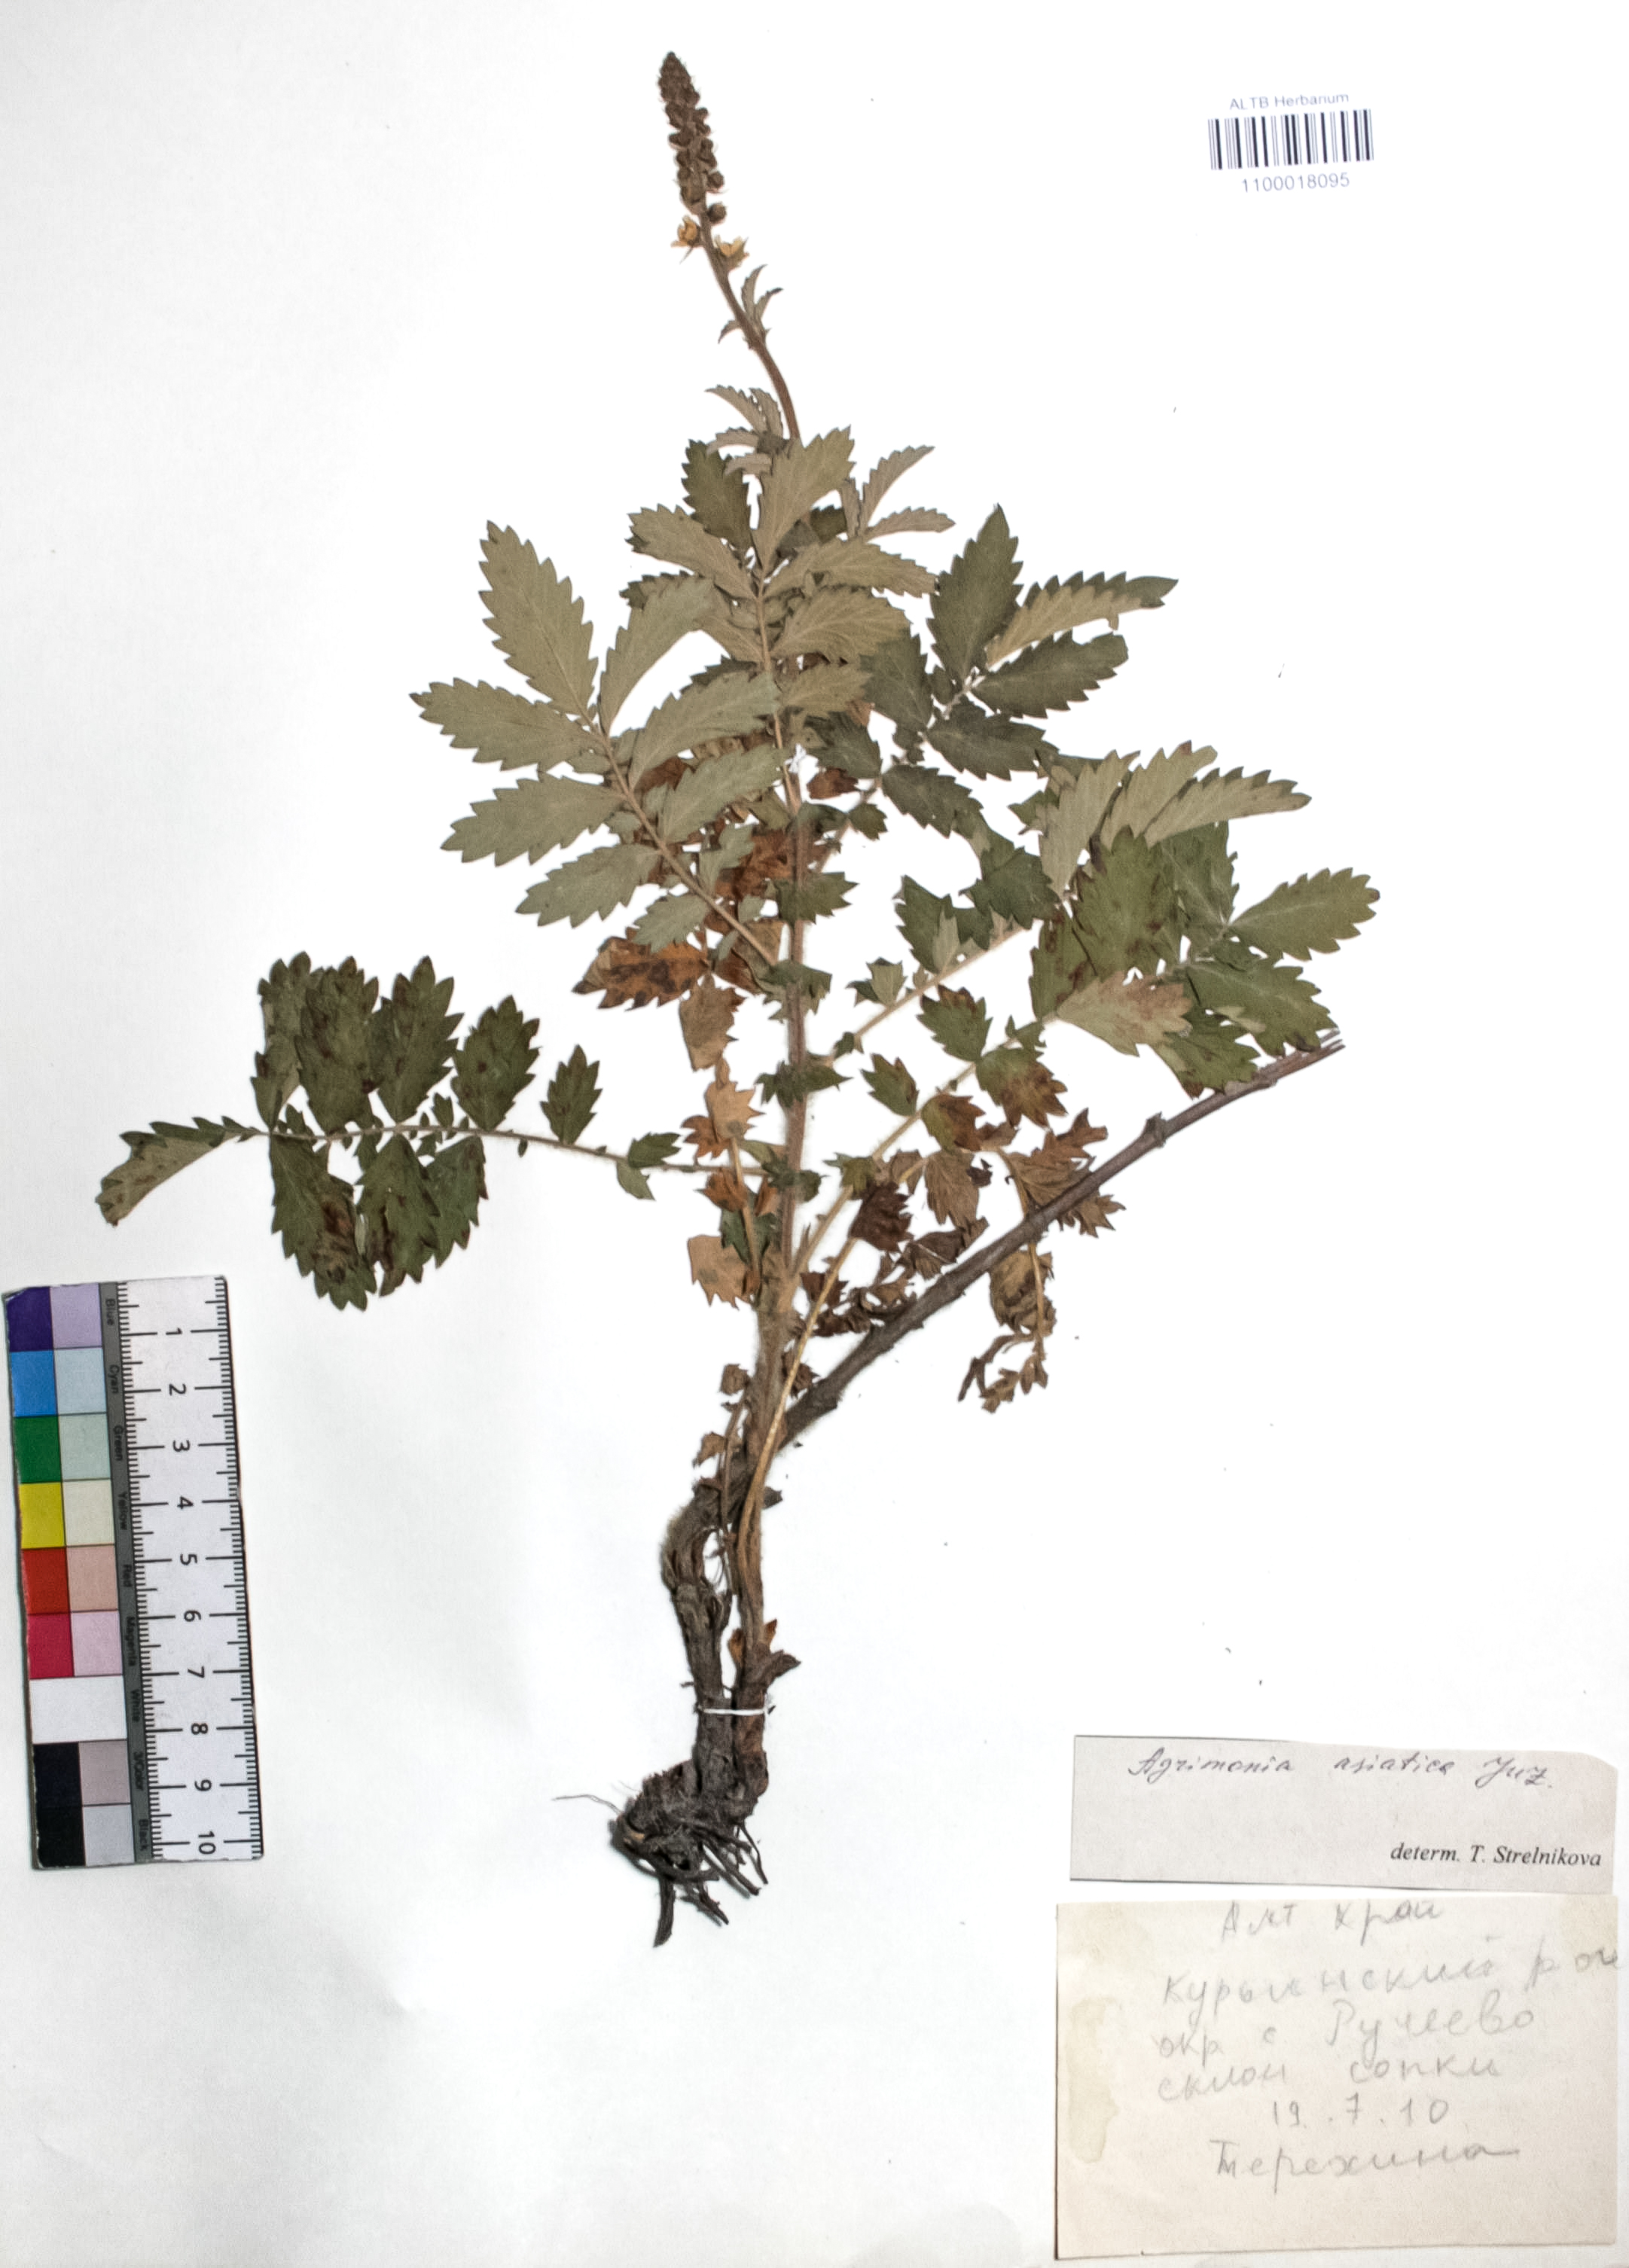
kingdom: Plantae
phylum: Tracheophyta
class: Magnoliopsida
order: Rosales
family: Rosaceae
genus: Agrimonia
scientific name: Agrimonia eupatoria
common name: Agrimony
